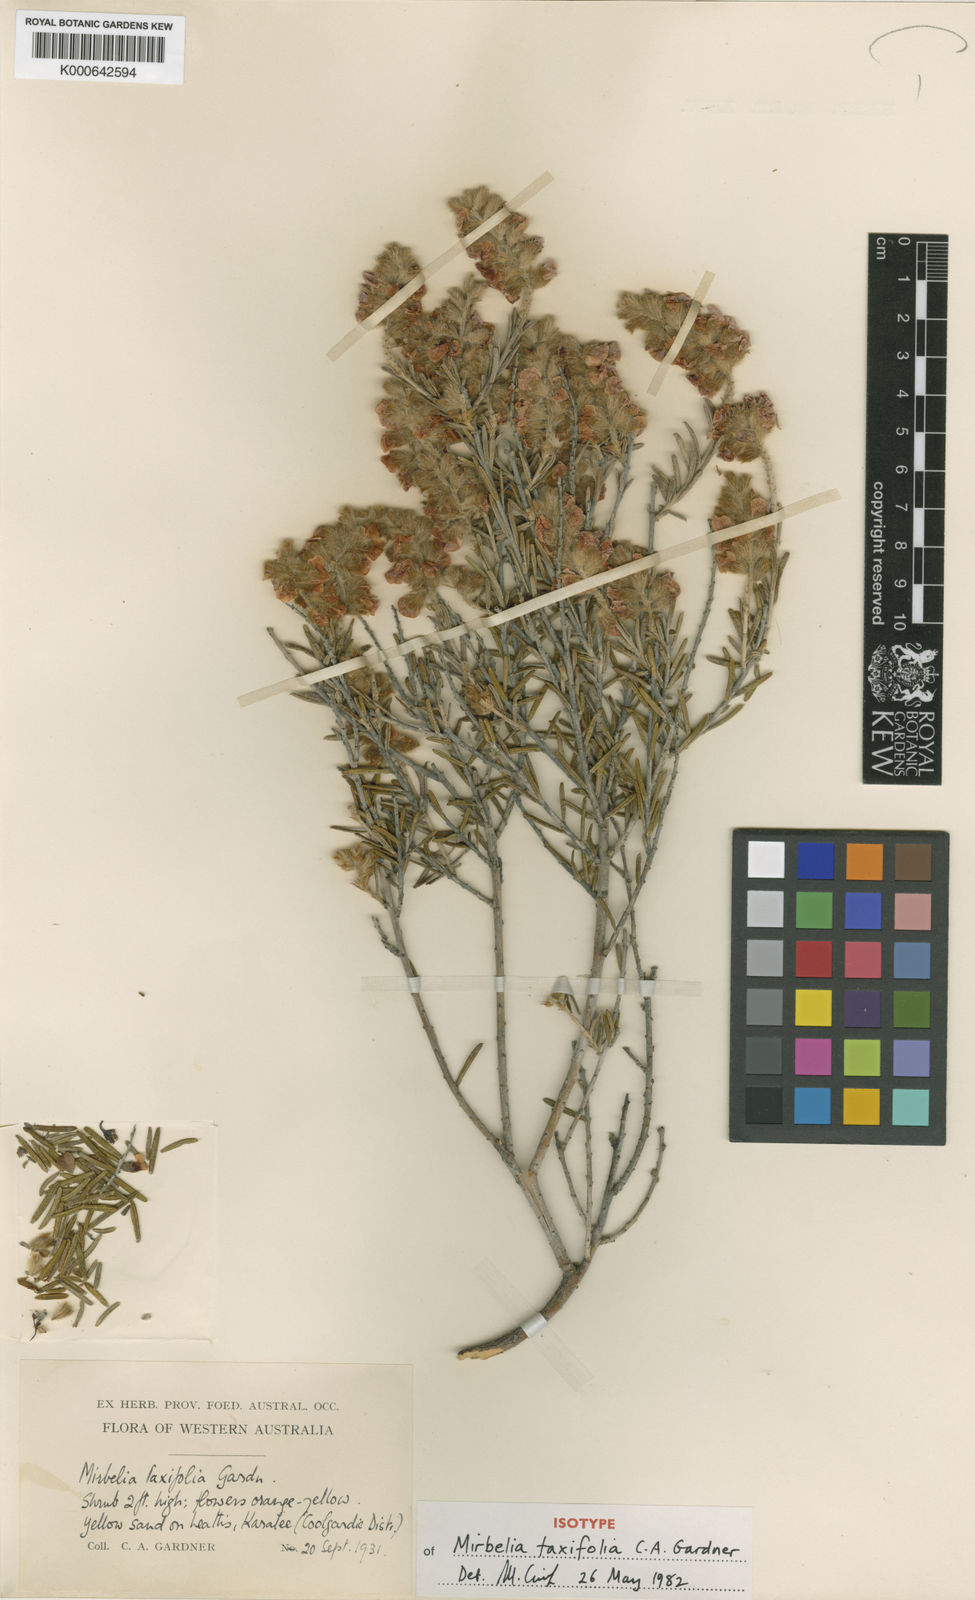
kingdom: Plantae
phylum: Tracheophyta
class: Magnoliopsida
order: Fabales
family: Fabaceae
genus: Mirbelia
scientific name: Mirbelia taxifolia
